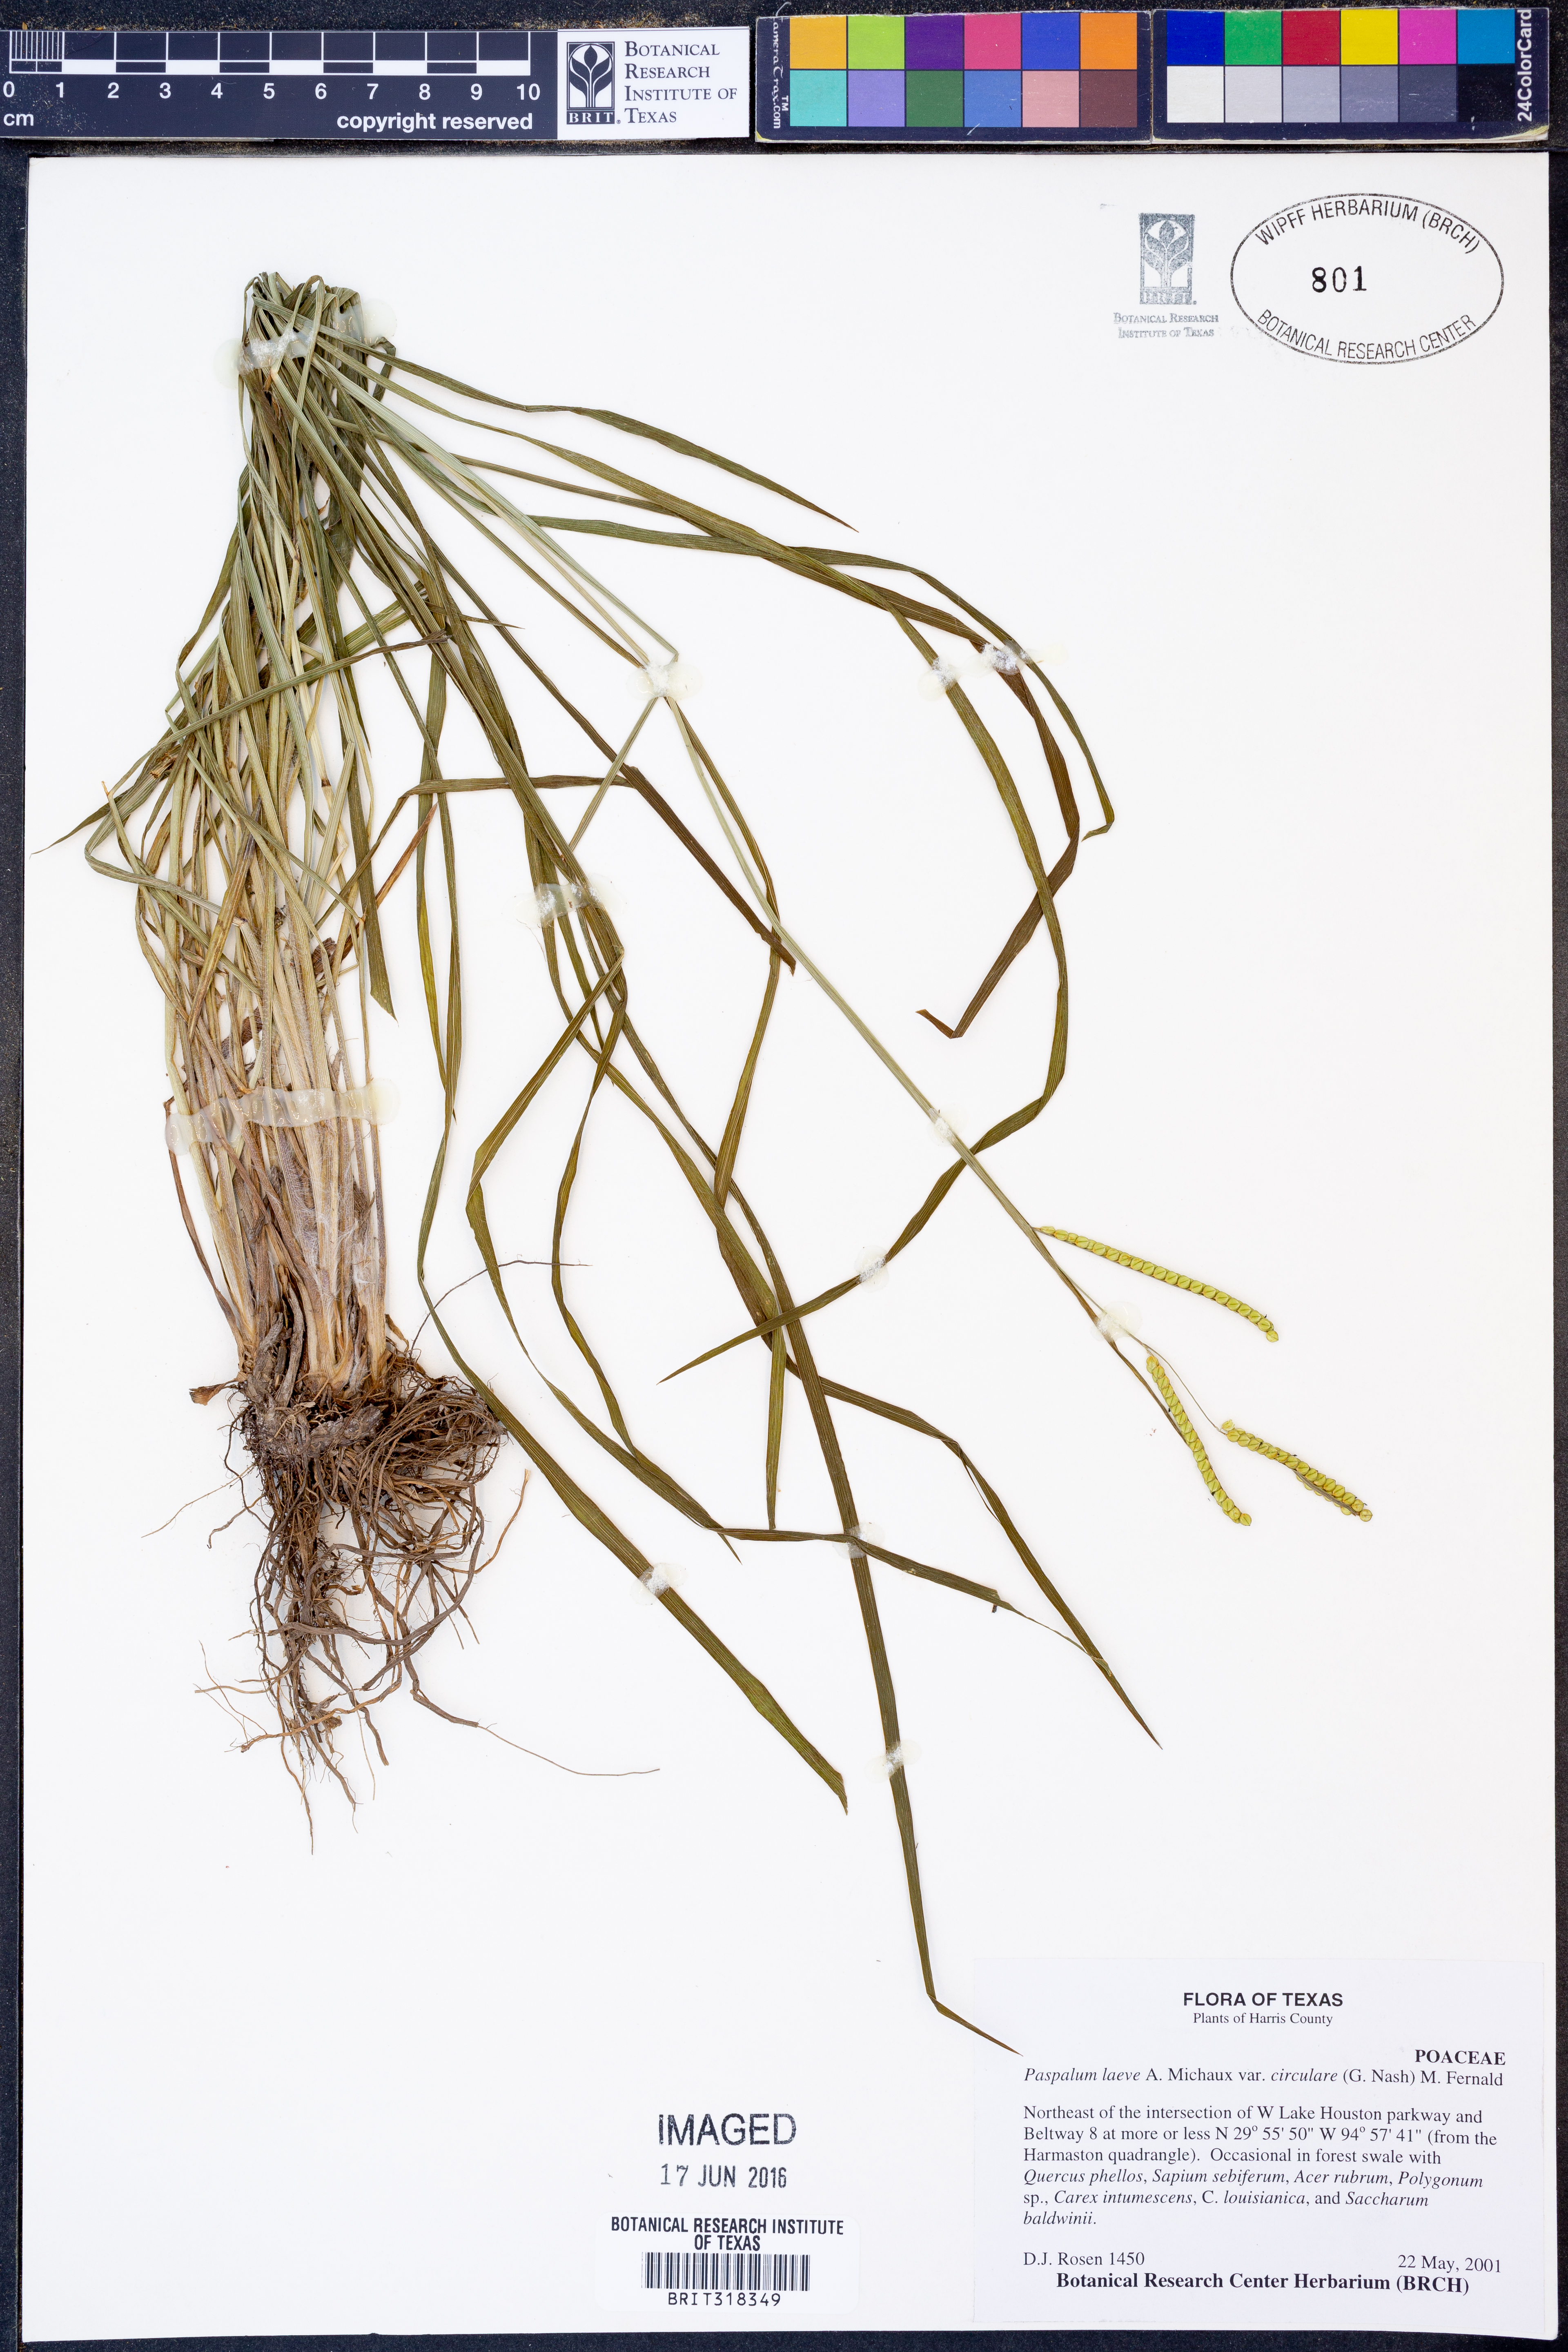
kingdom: Plantae
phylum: Tracheophyta
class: Liliopsida
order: Poales
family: Poaceae
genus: Paspalum
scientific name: Paspalum laeve
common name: Field paspalum
